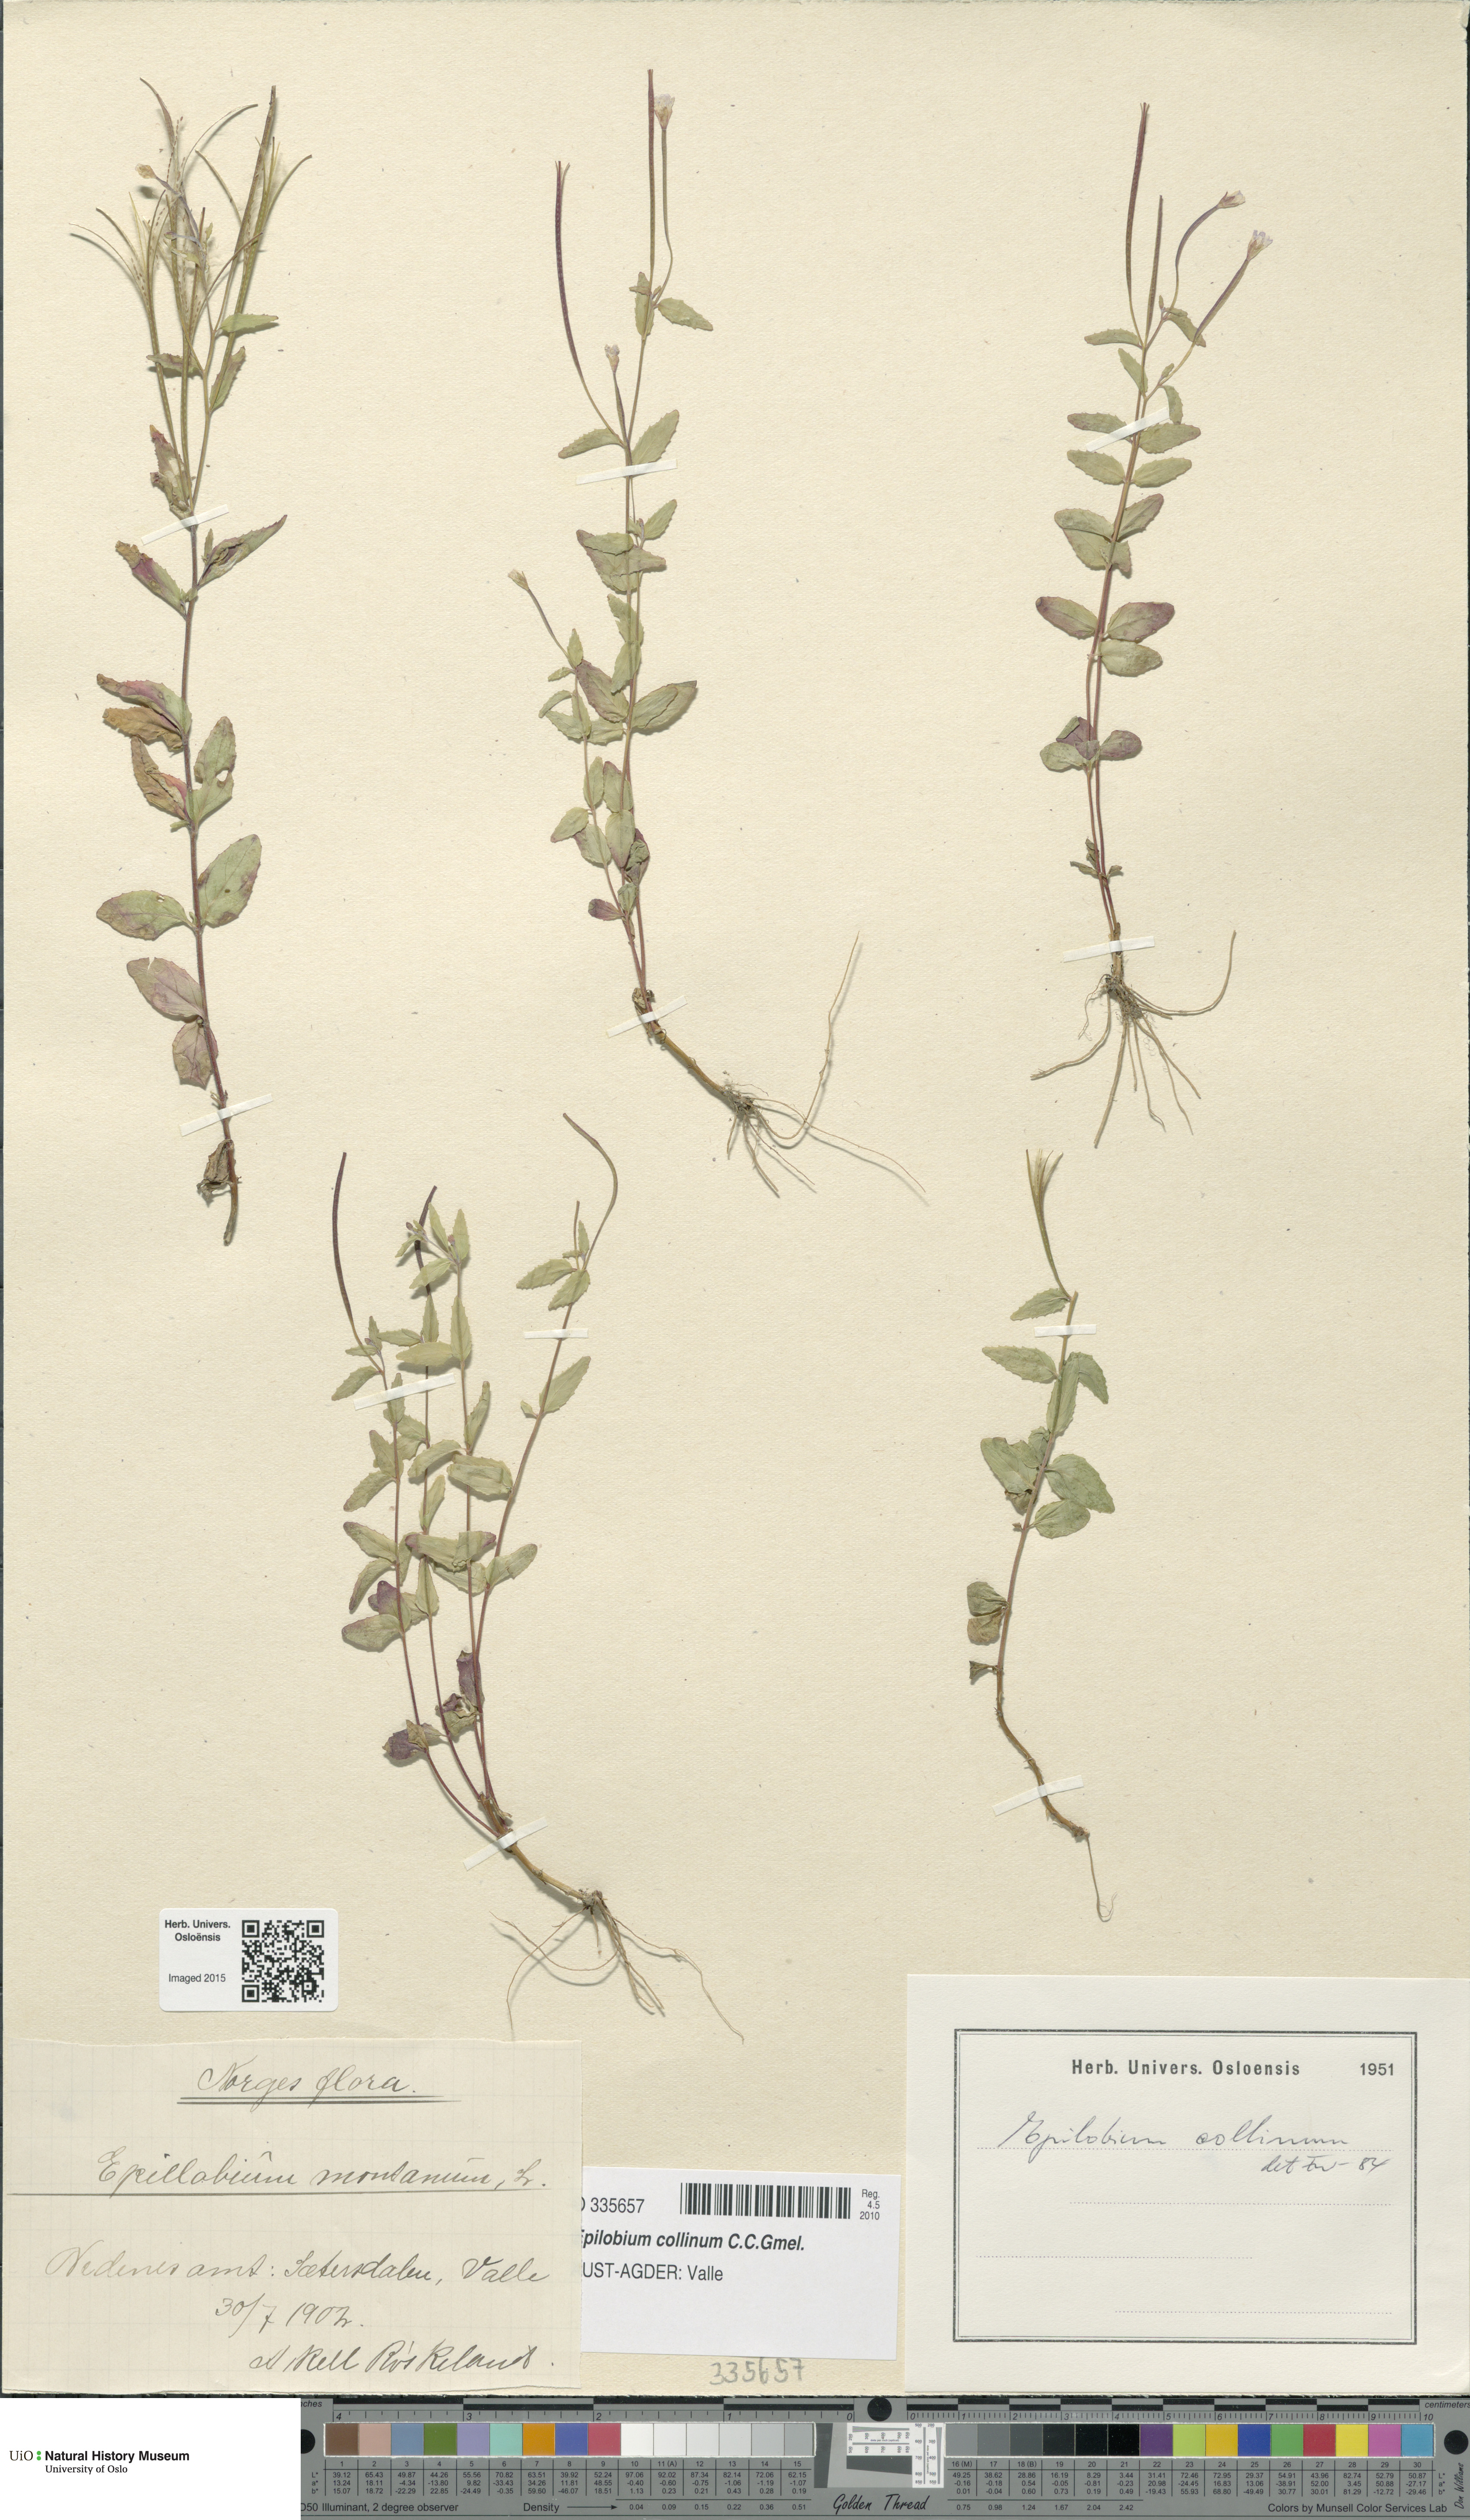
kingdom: Plantae
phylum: Tracheophyta
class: Magnoliopsida
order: Myrtales
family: Onagraceae
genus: Epilobium
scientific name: Epilobium collinum
